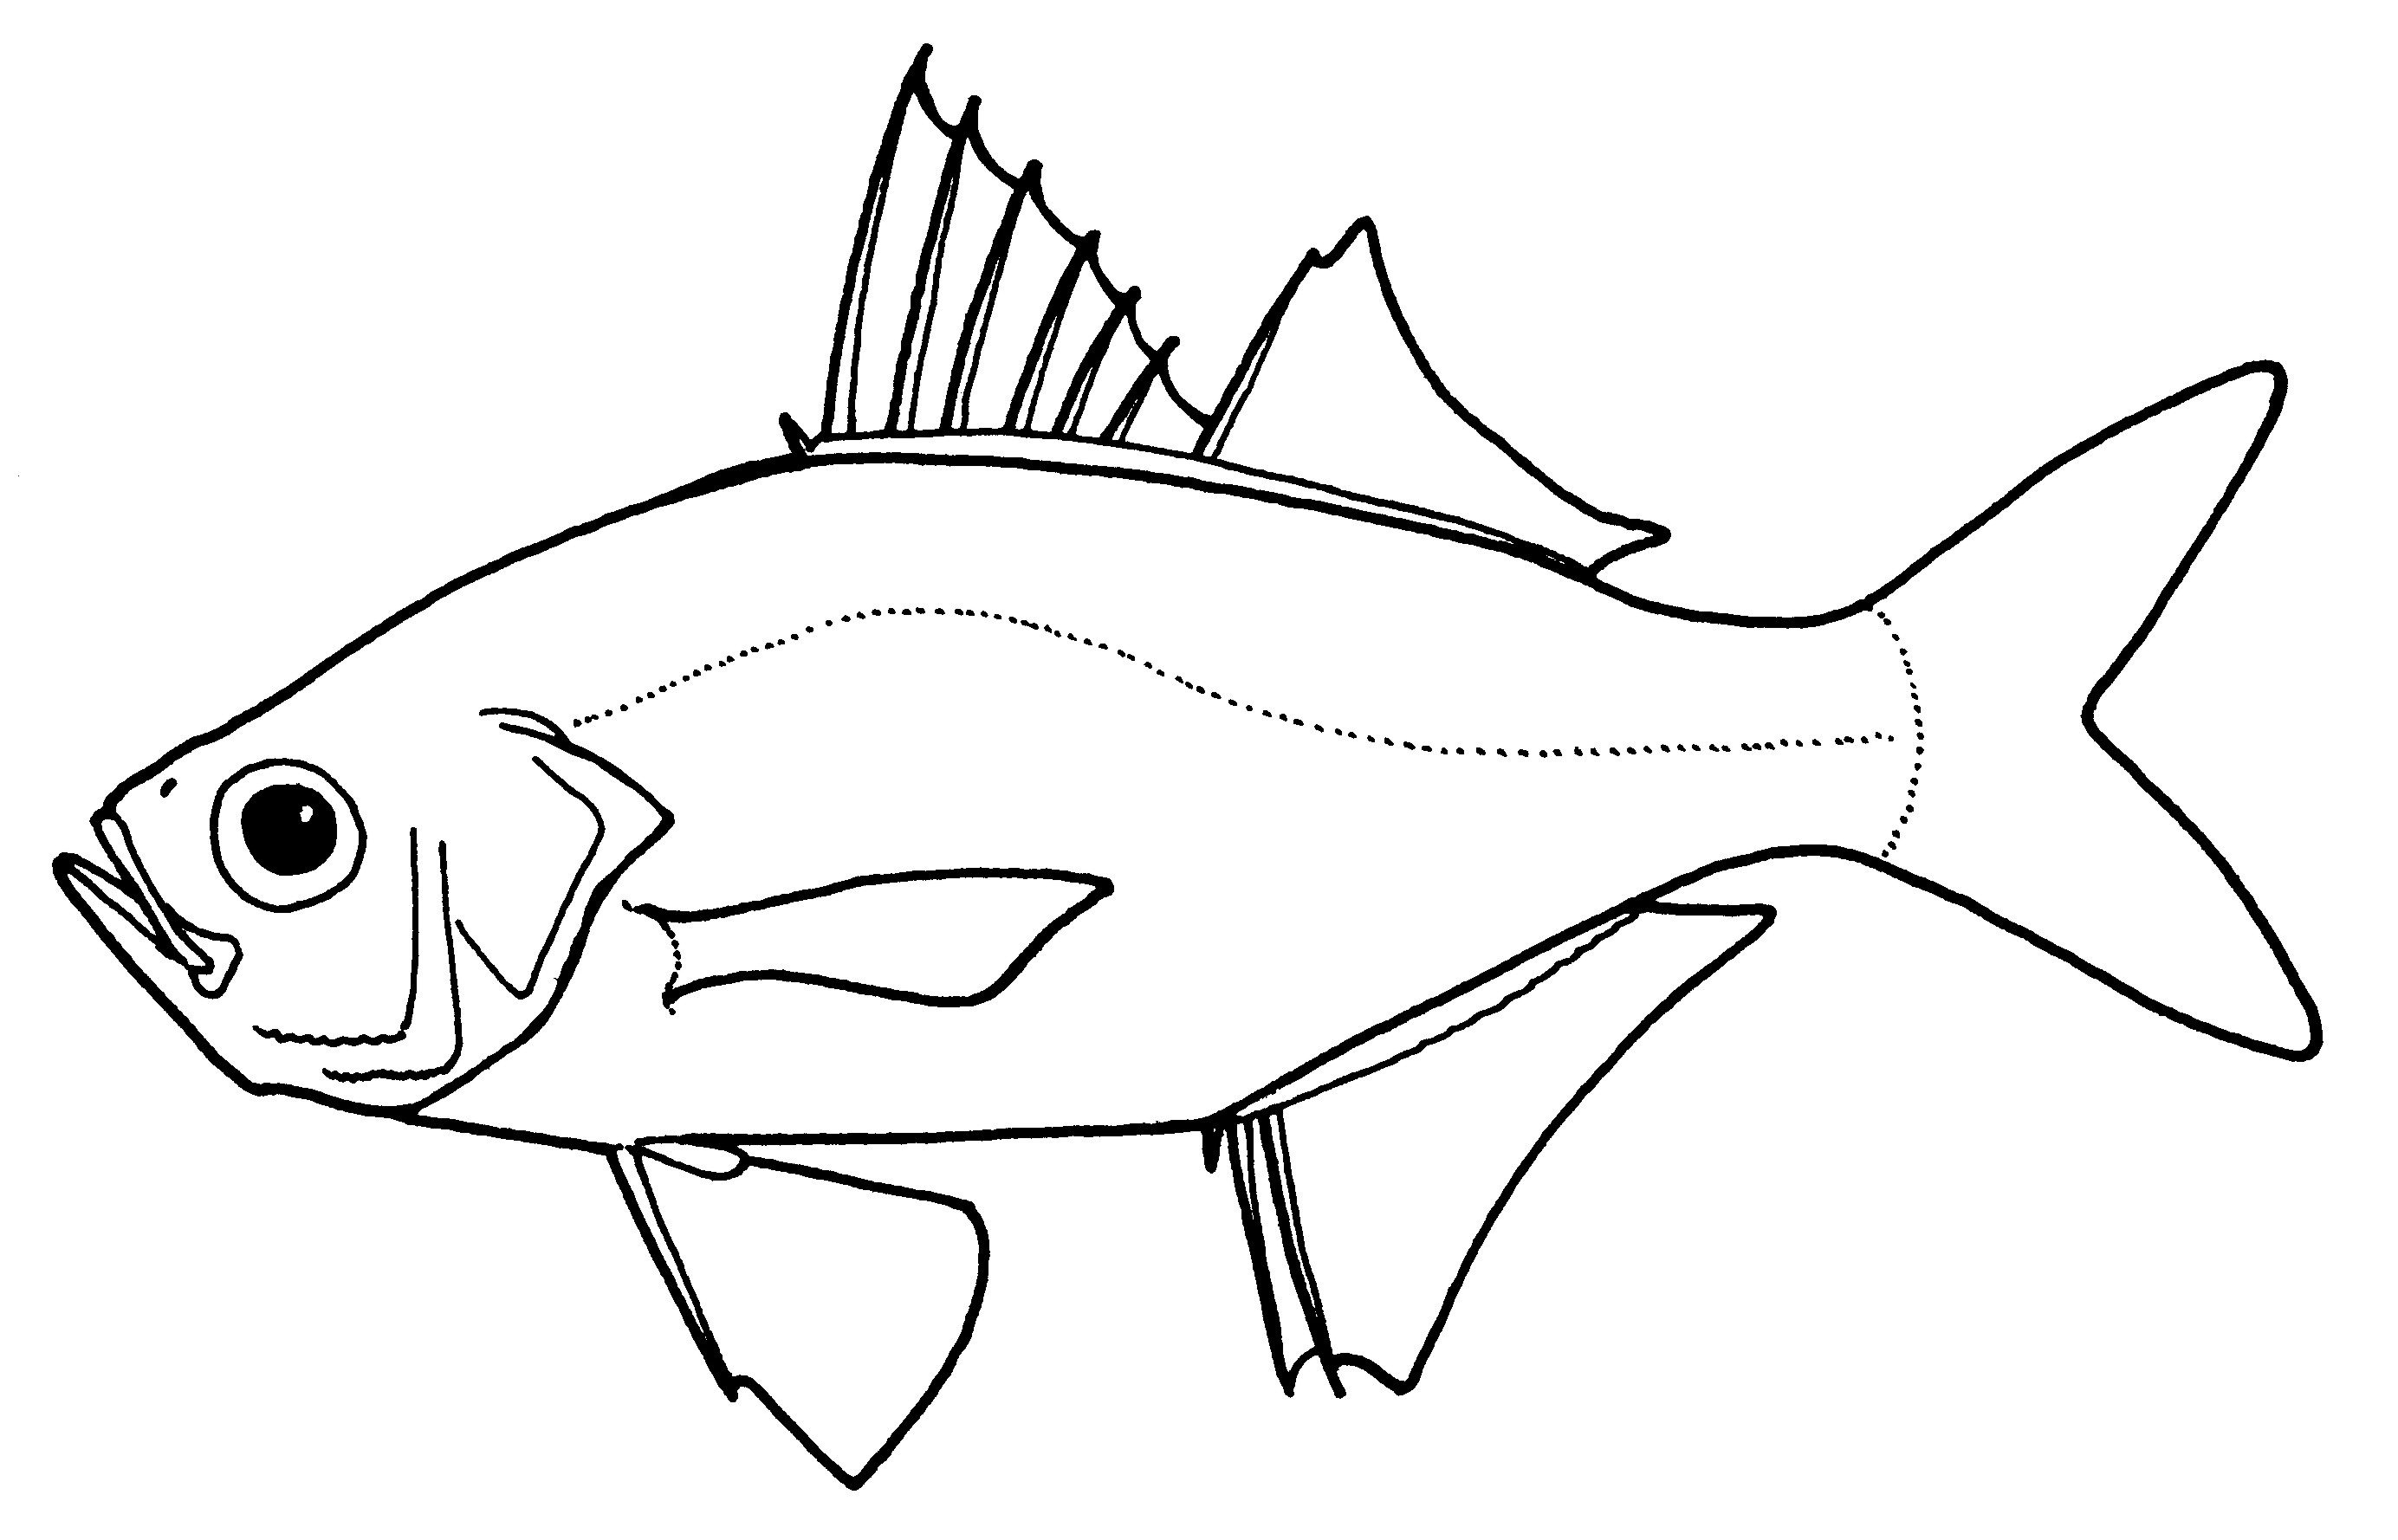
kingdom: Animalia
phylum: Chordata
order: Perciformes
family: Ambassidae
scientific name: Ambassidae
